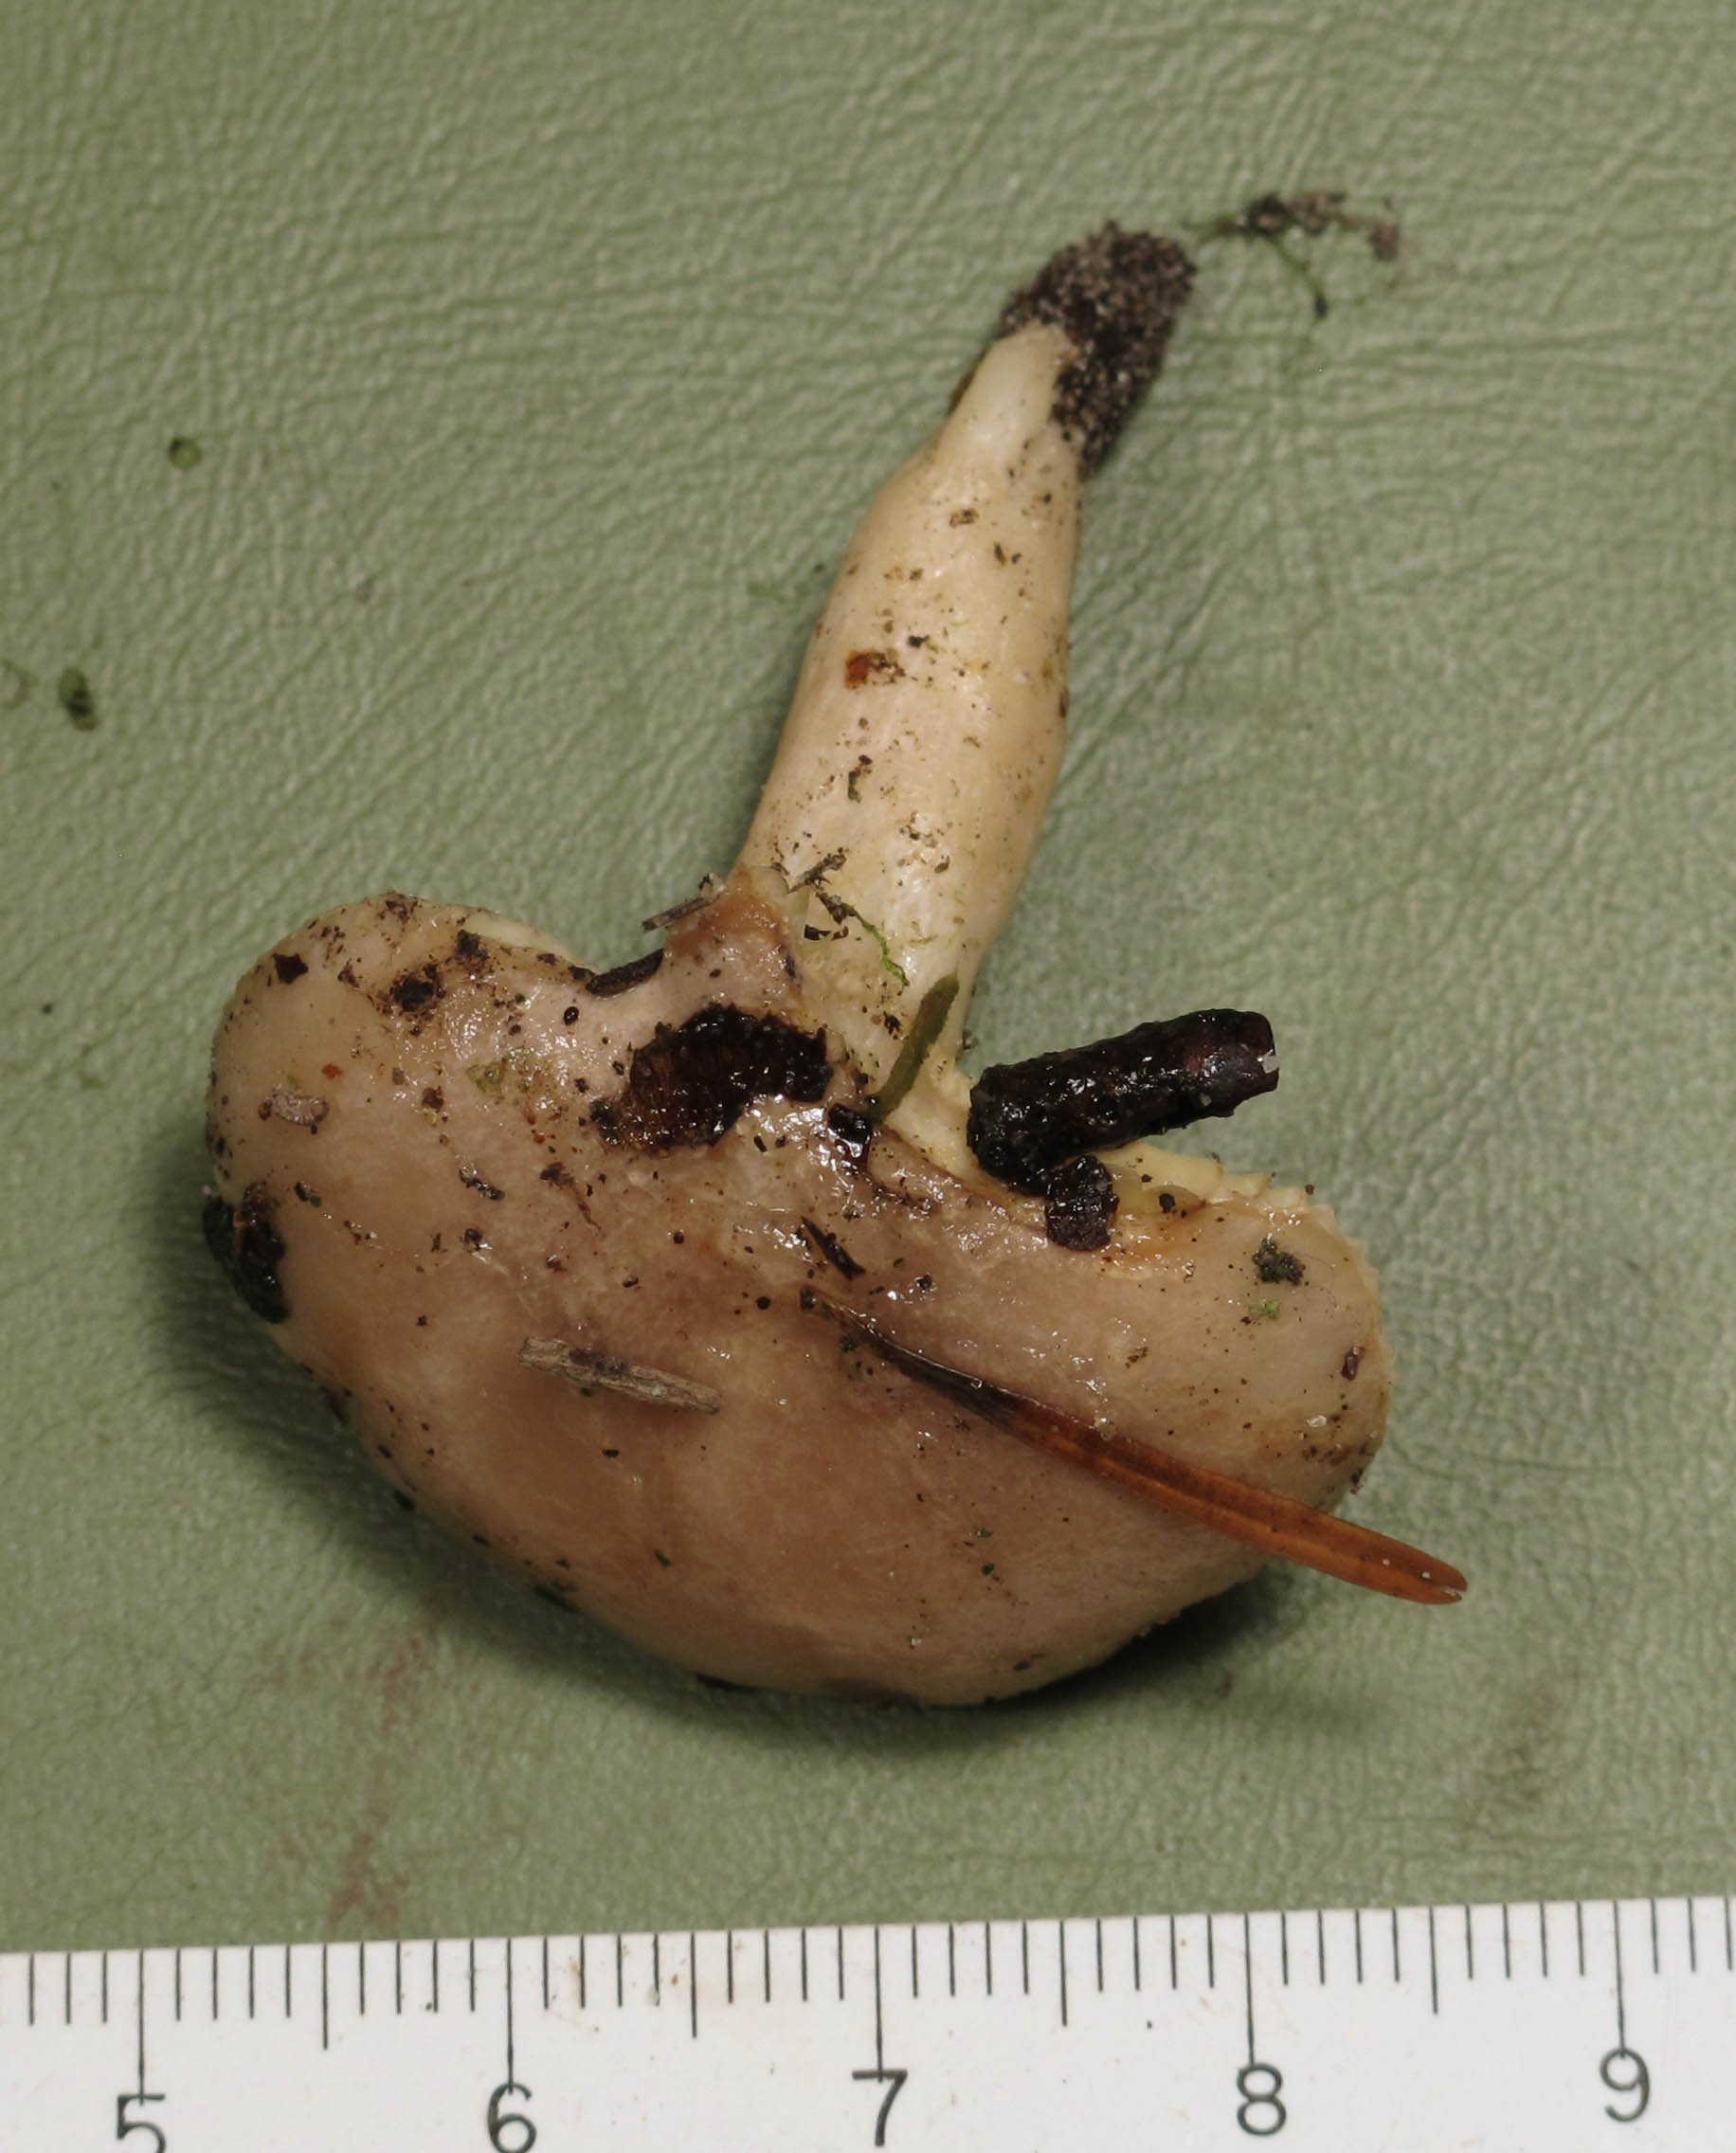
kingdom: Fungi
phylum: Basidiomycota
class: Agaricomycetes
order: Russulales
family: Russulaceae
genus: Lactarius
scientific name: Lactarius albocarneus
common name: ædelgran-mælkehat
